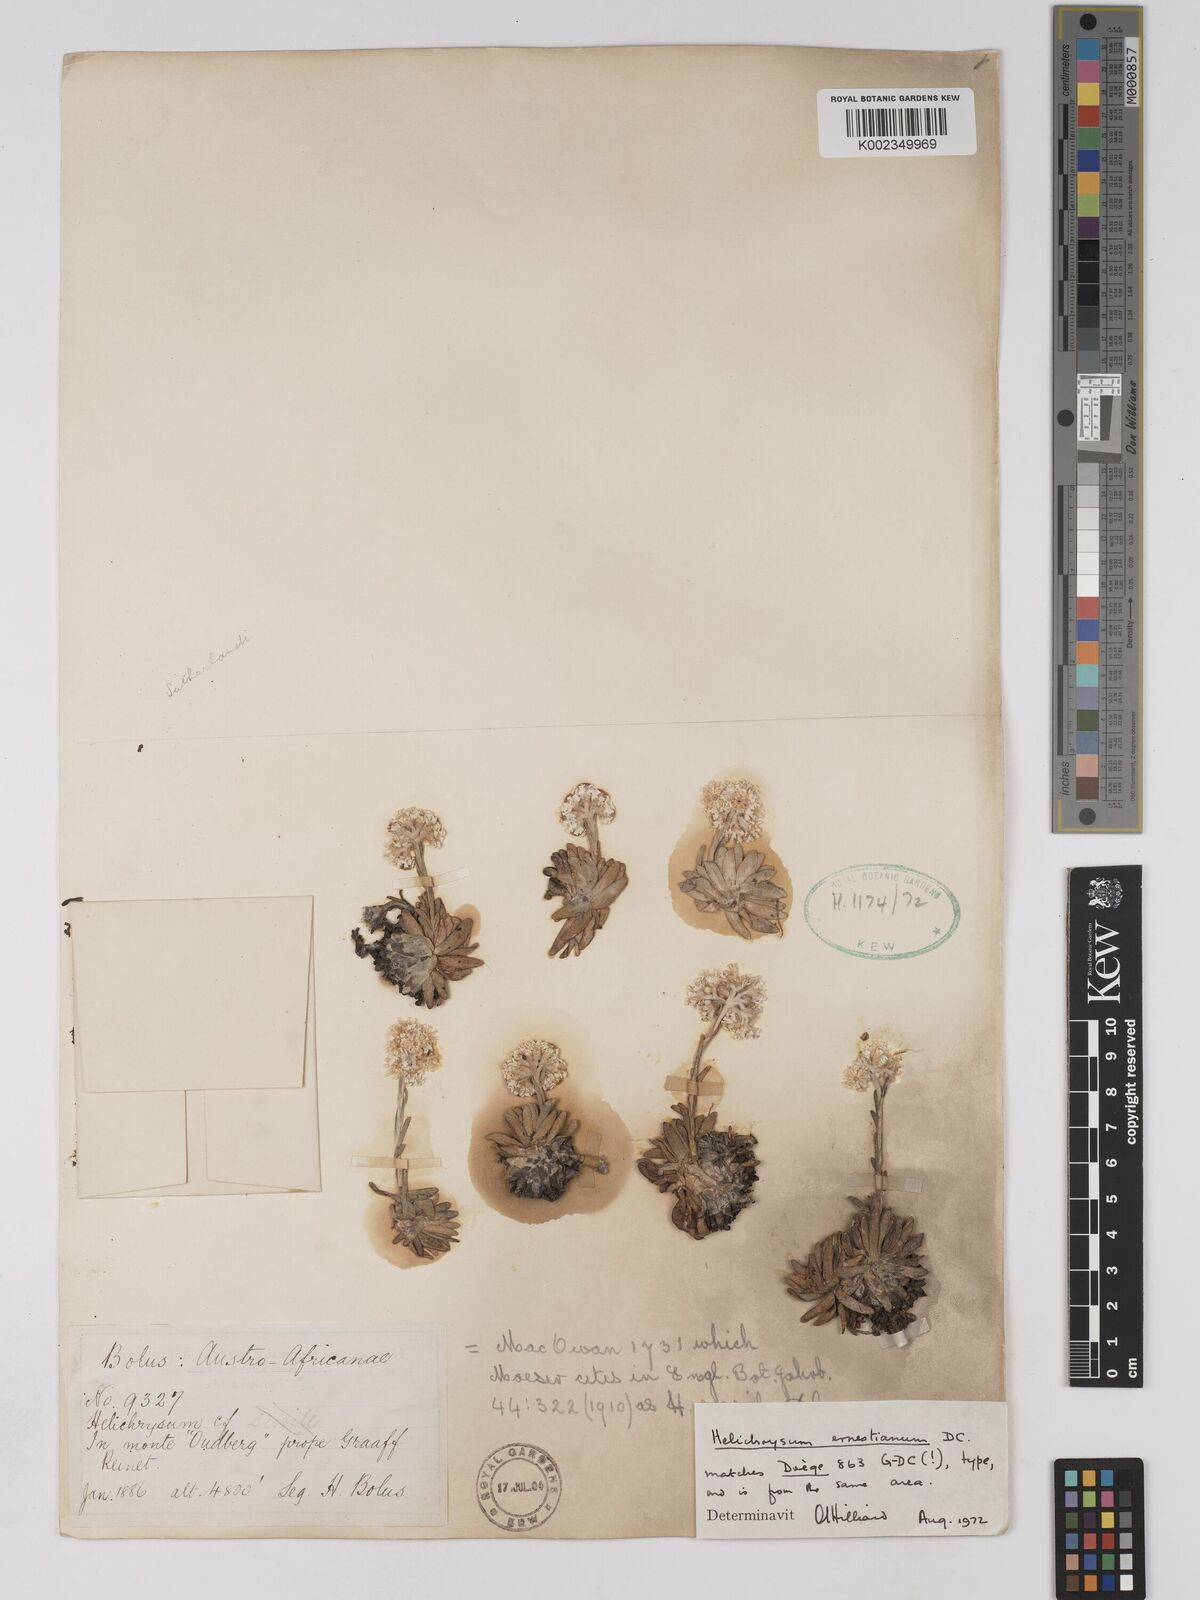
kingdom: Plantae
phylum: Tracheophyta
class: Magnoliopsida
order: Asterales
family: Asteraceae
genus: Helichrysum
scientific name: Helichrysum sessile
